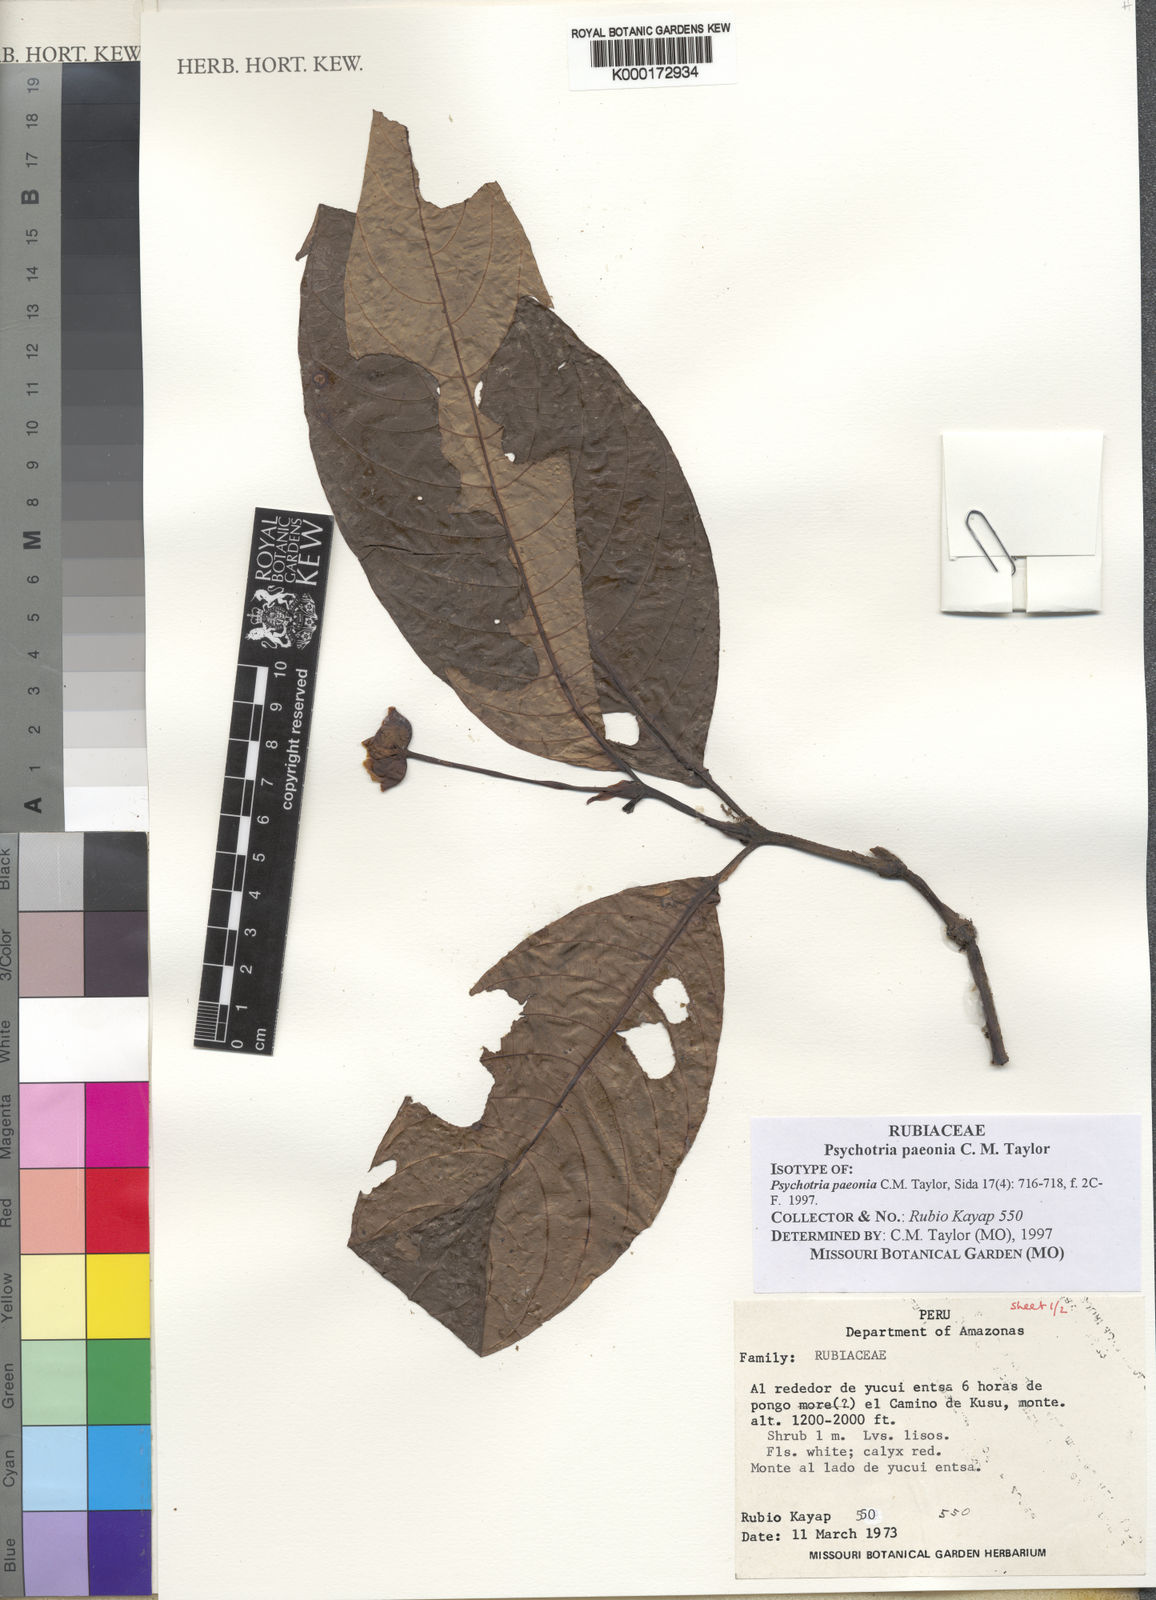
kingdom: Plantae
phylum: Tracheophyta
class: Magnoliopsida
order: Gentianales
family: Rubiaceae
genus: Psychotria
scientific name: Psychotria paeonia
